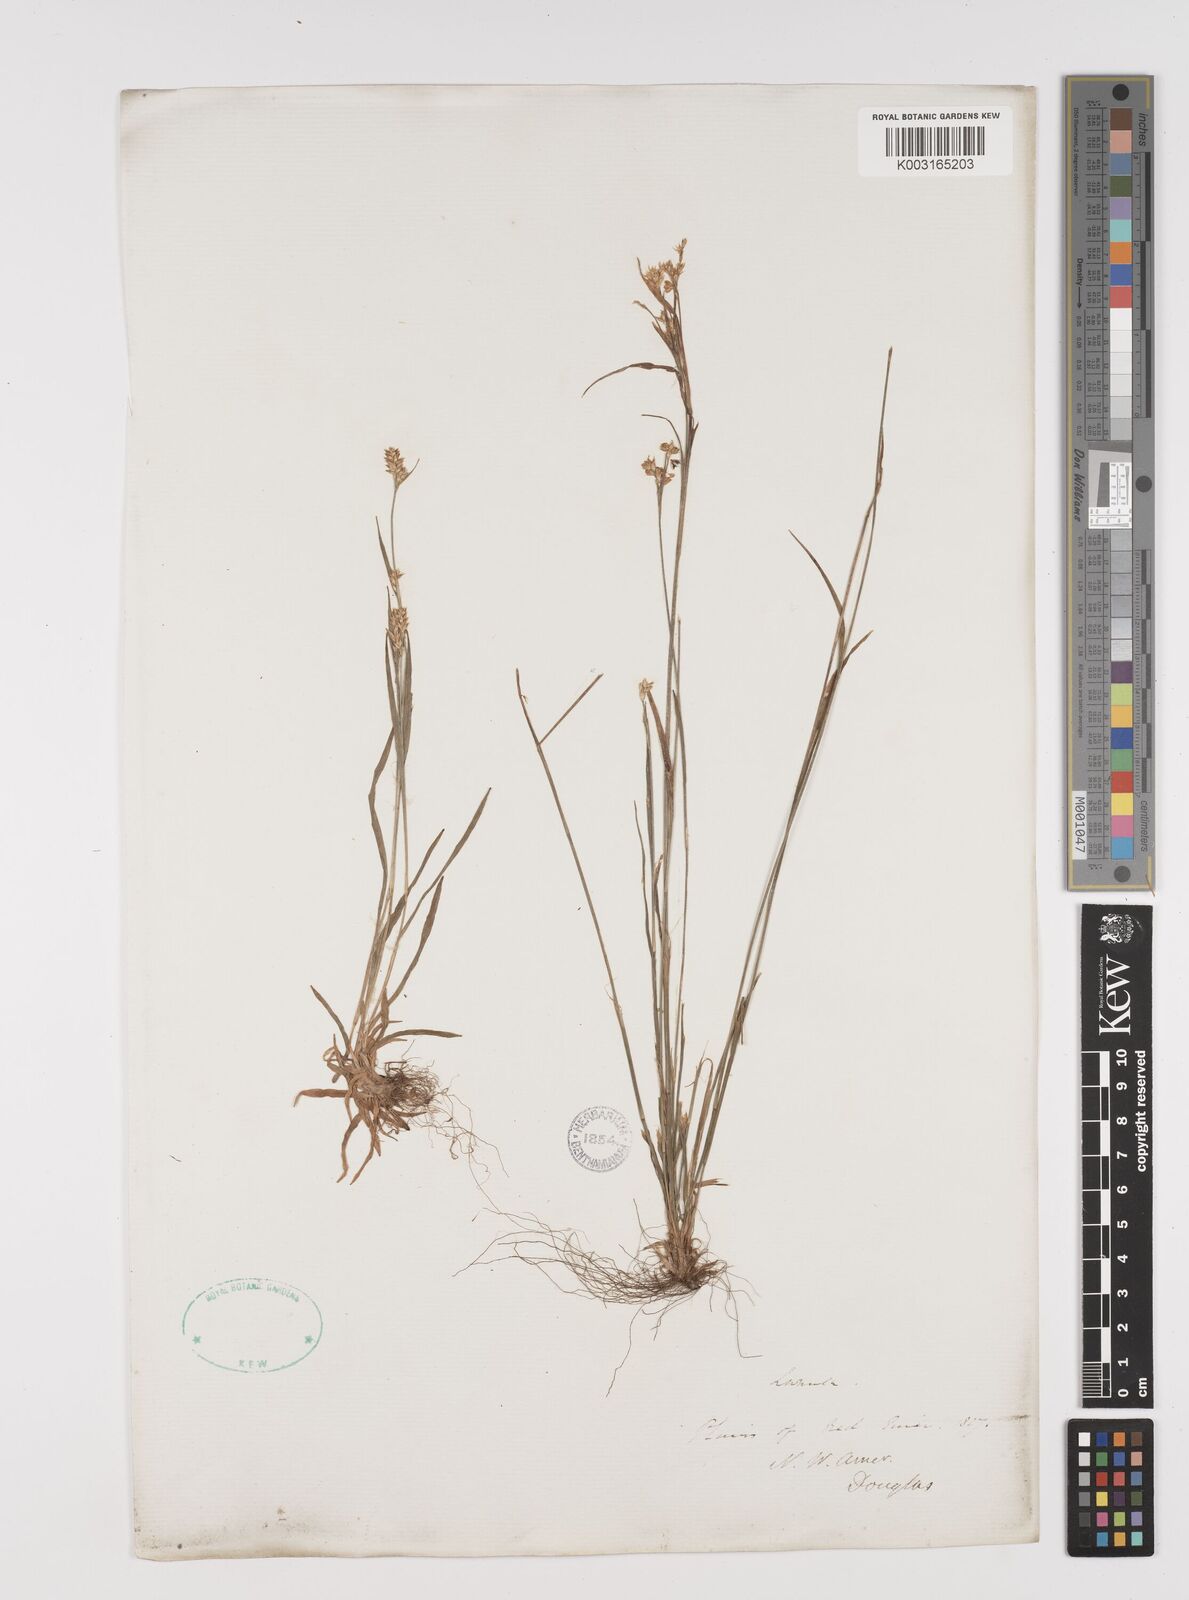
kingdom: Plantae
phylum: Tracheophyta
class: Liliopsida
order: Poales
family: Juncaceae
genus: Luzula
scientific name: Luzula
